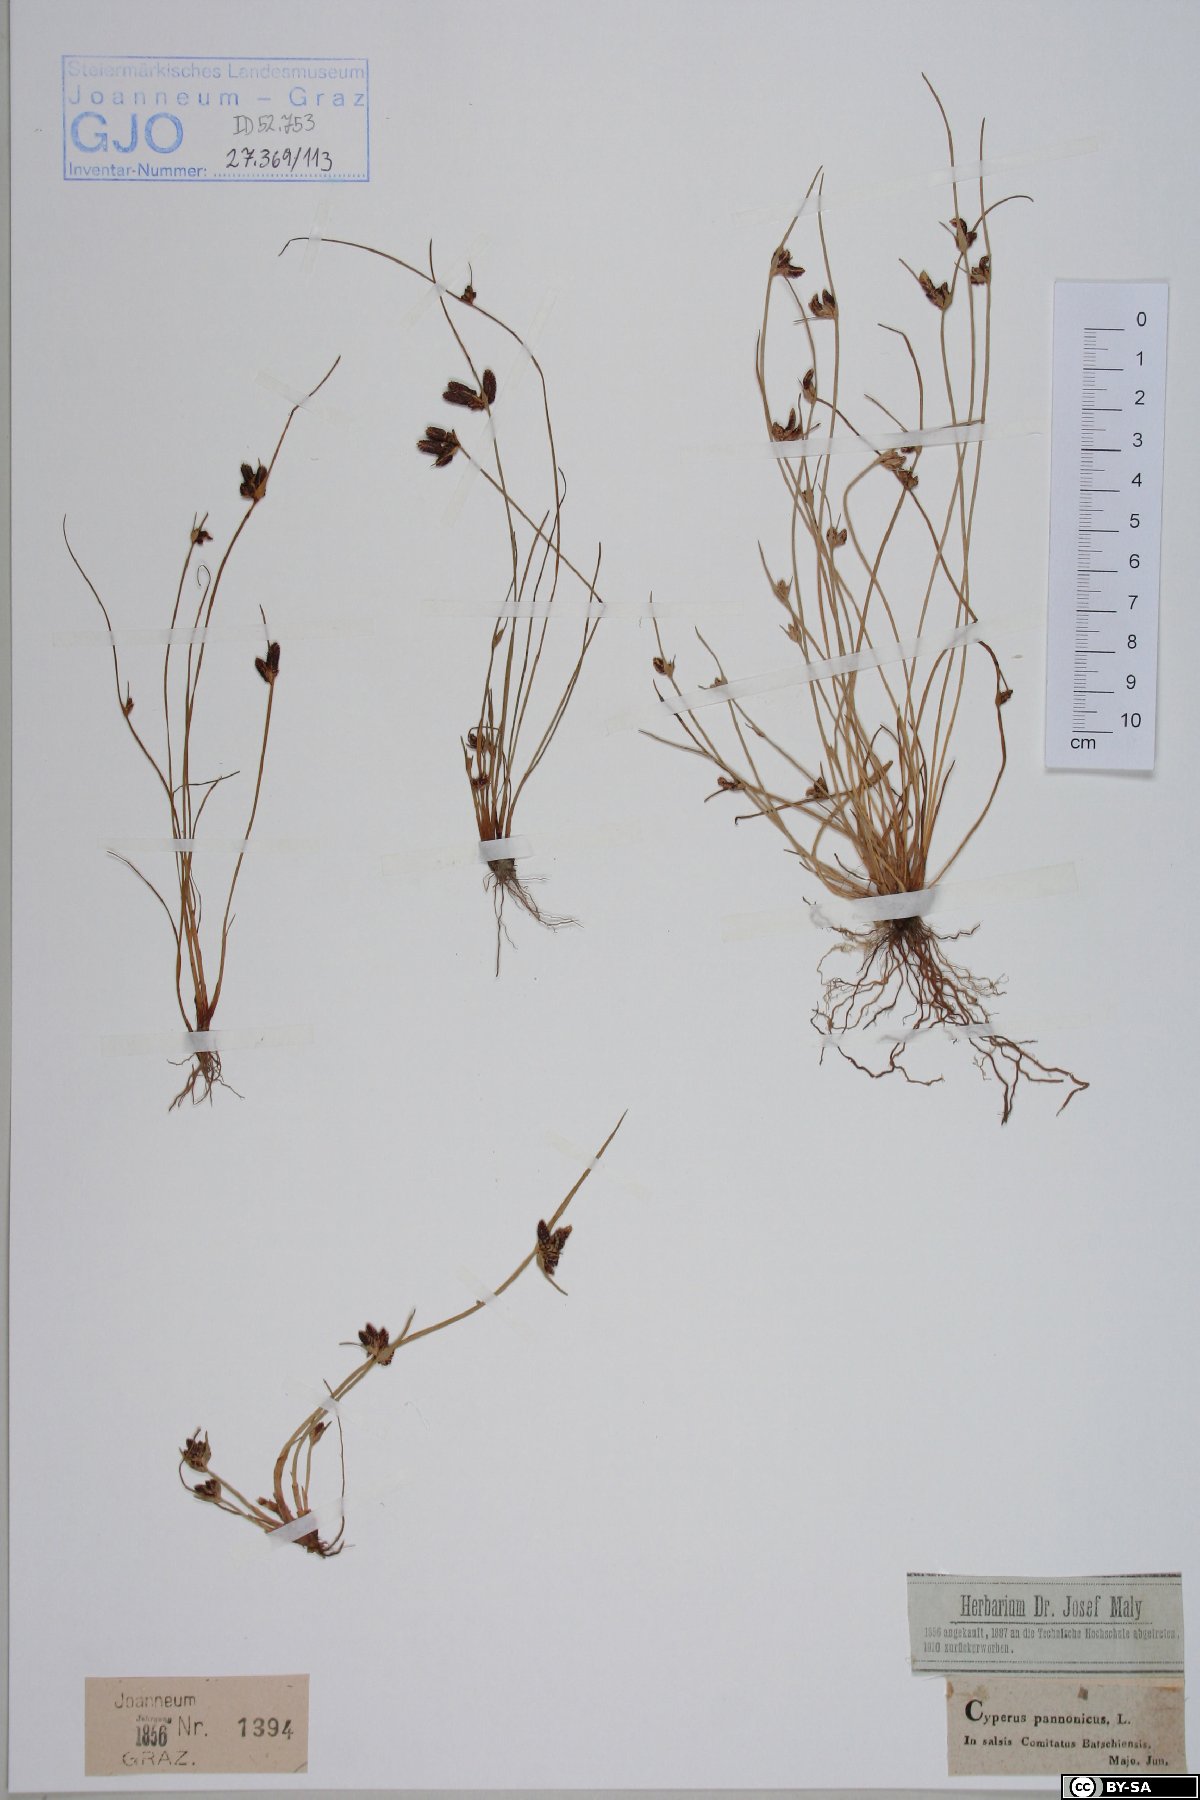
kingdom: Plantae
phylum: Tracheophyta
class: Liliopsida
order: Poales
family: Cyperaceae
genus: Cyperus
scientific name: Cyperus pannonicus
